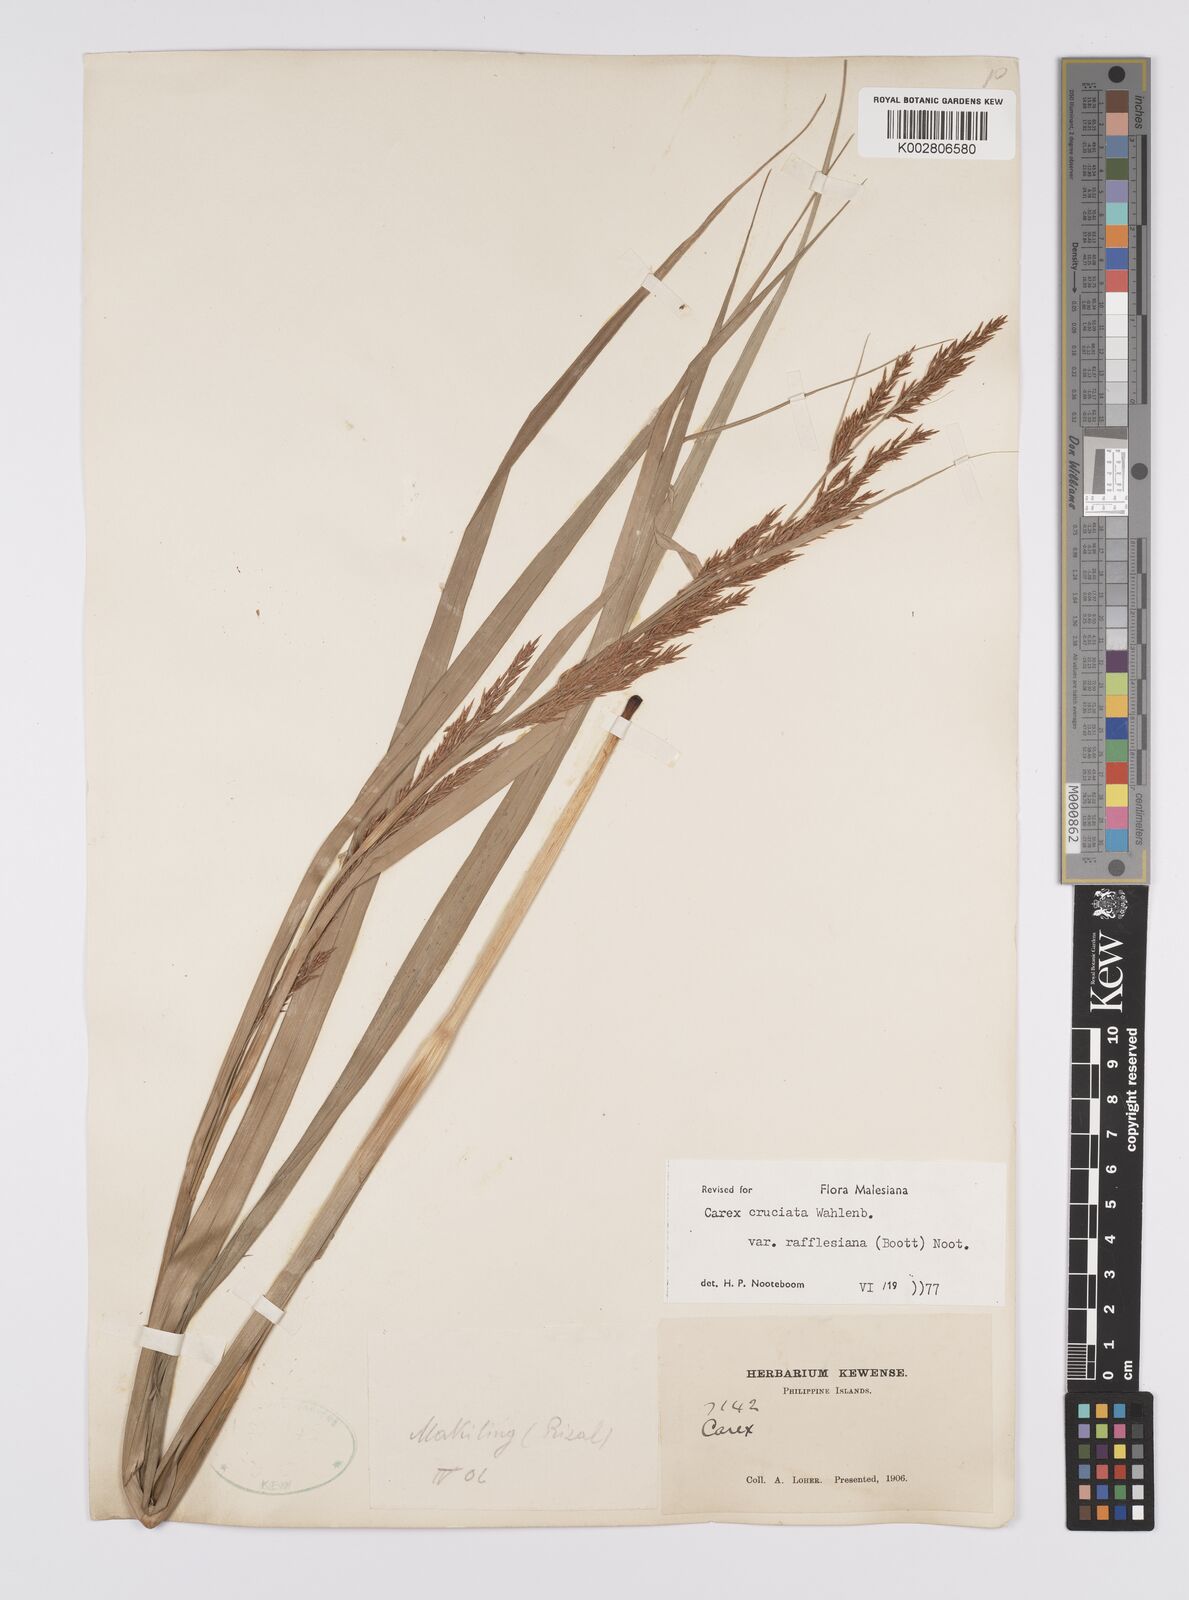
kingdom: Plantae
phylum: Tracheophyta
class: Liliopsida
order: Poales
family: Cyperaceae
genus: Carex
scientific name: Carex rafflesiana
